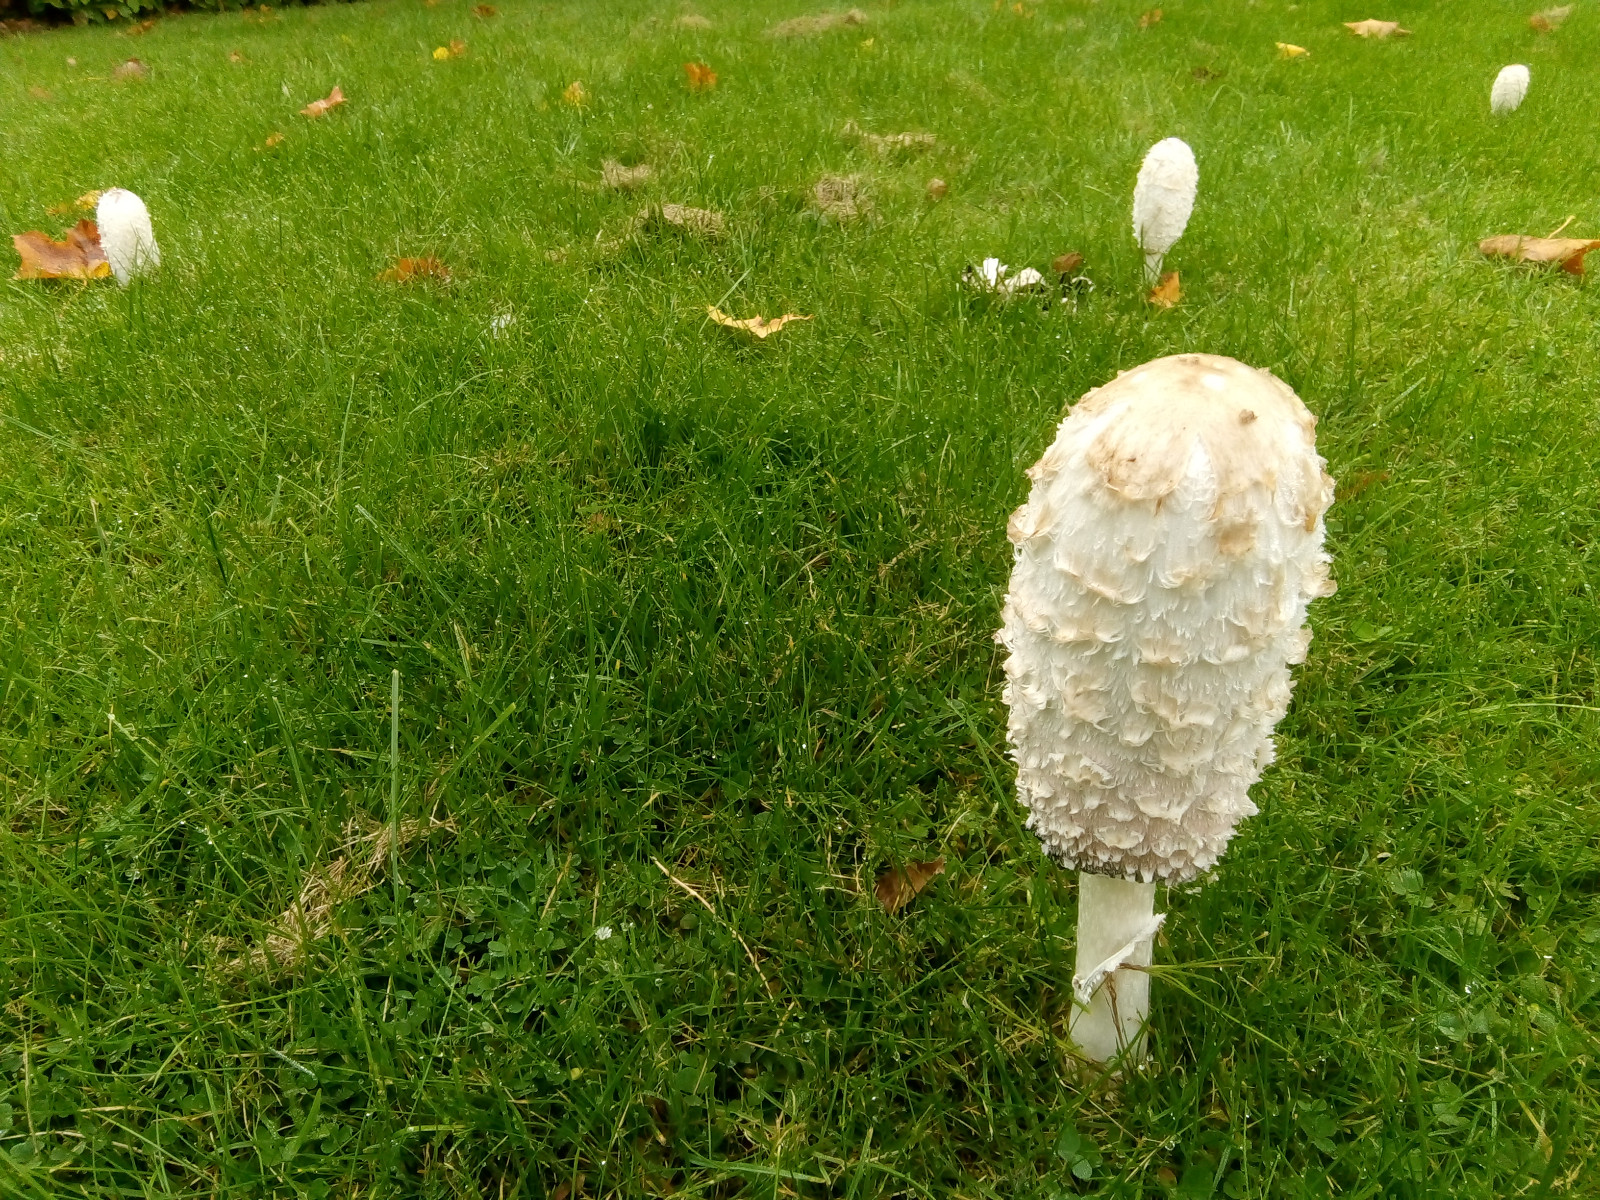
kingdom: Fungi
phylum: Basidiomycota
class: Agaricomycetes
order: Agaricales
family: Agaricaceae
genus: Coprinus
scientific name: Coprinus comatus
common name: stor parykhat
